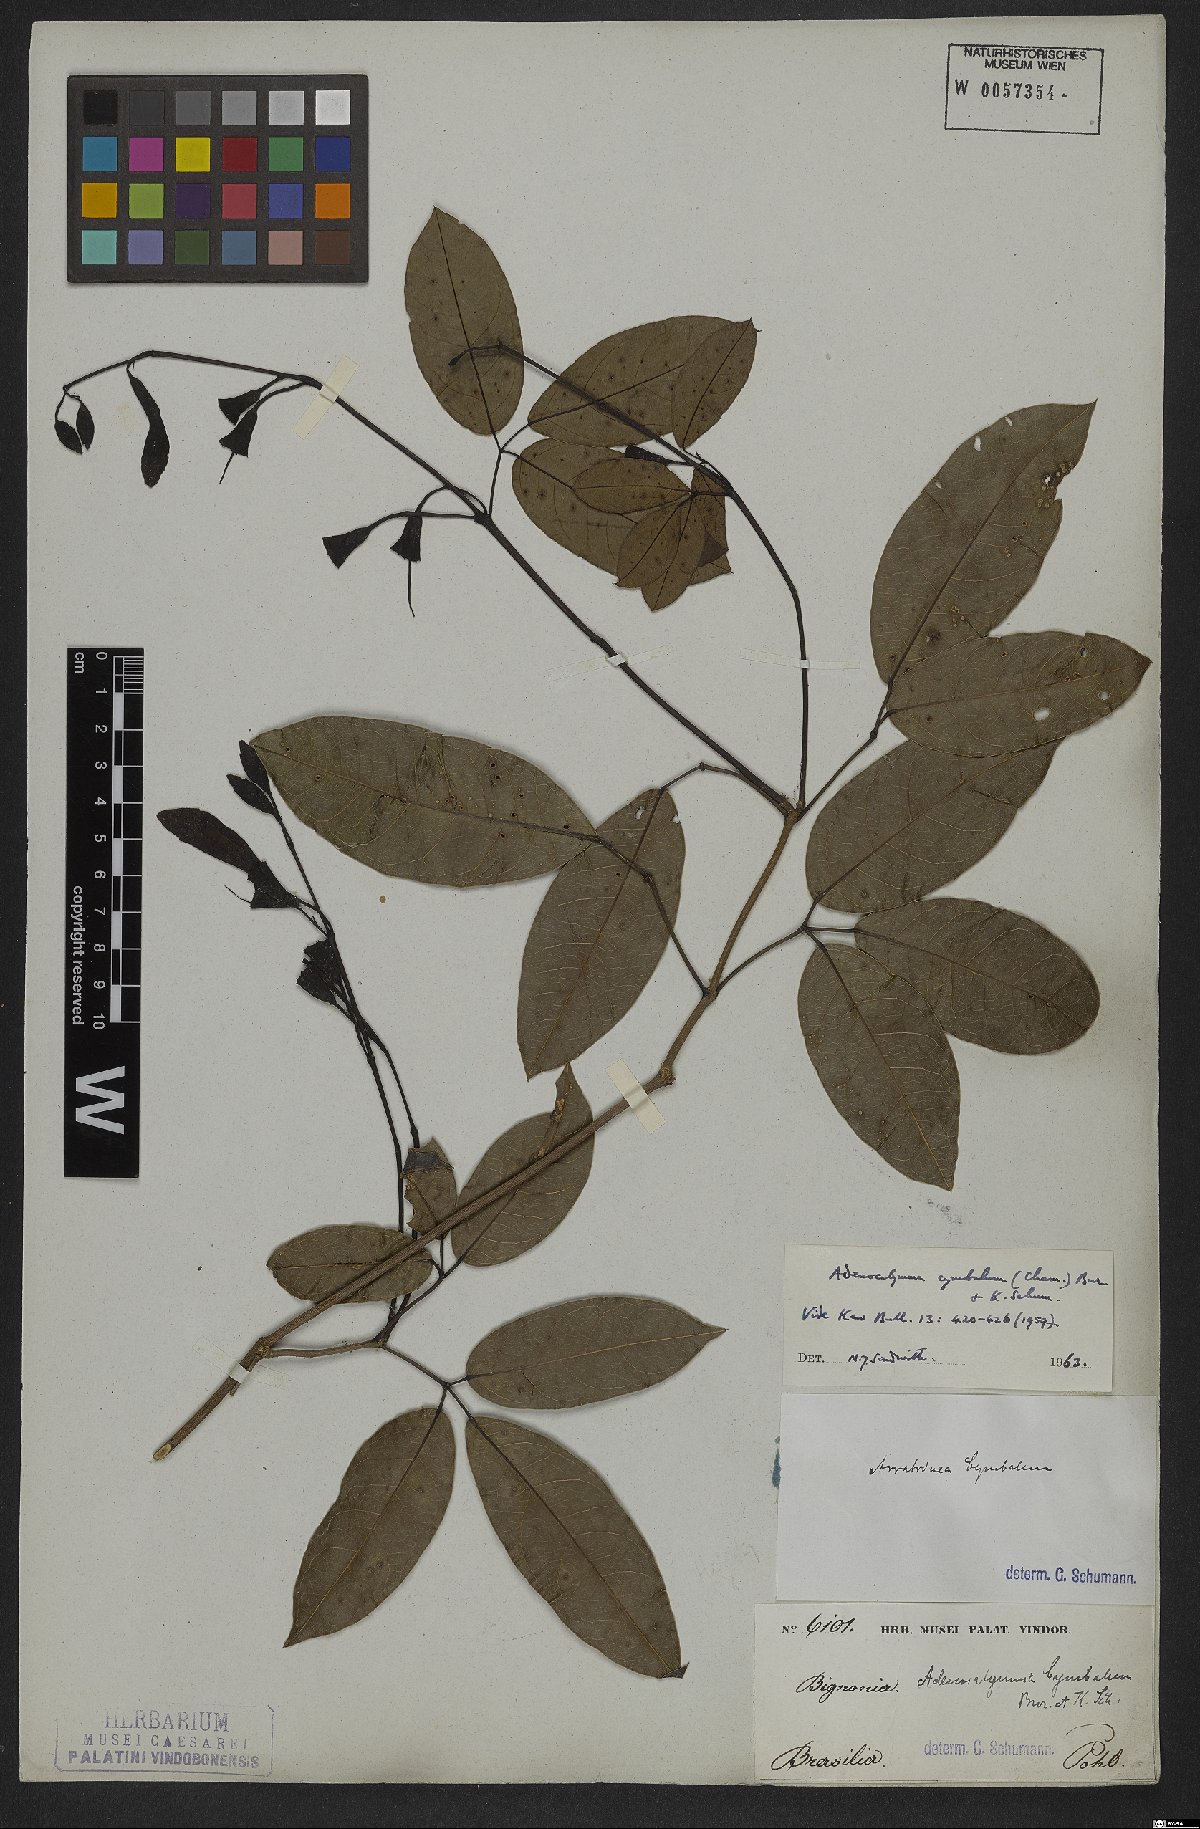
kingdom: Plantae
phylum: Tracheophyta
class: Magnoliopsida
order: Lamiales
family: Bignoniaceae
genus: Adenocalymma
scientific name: Adenocalymma cymbalum
